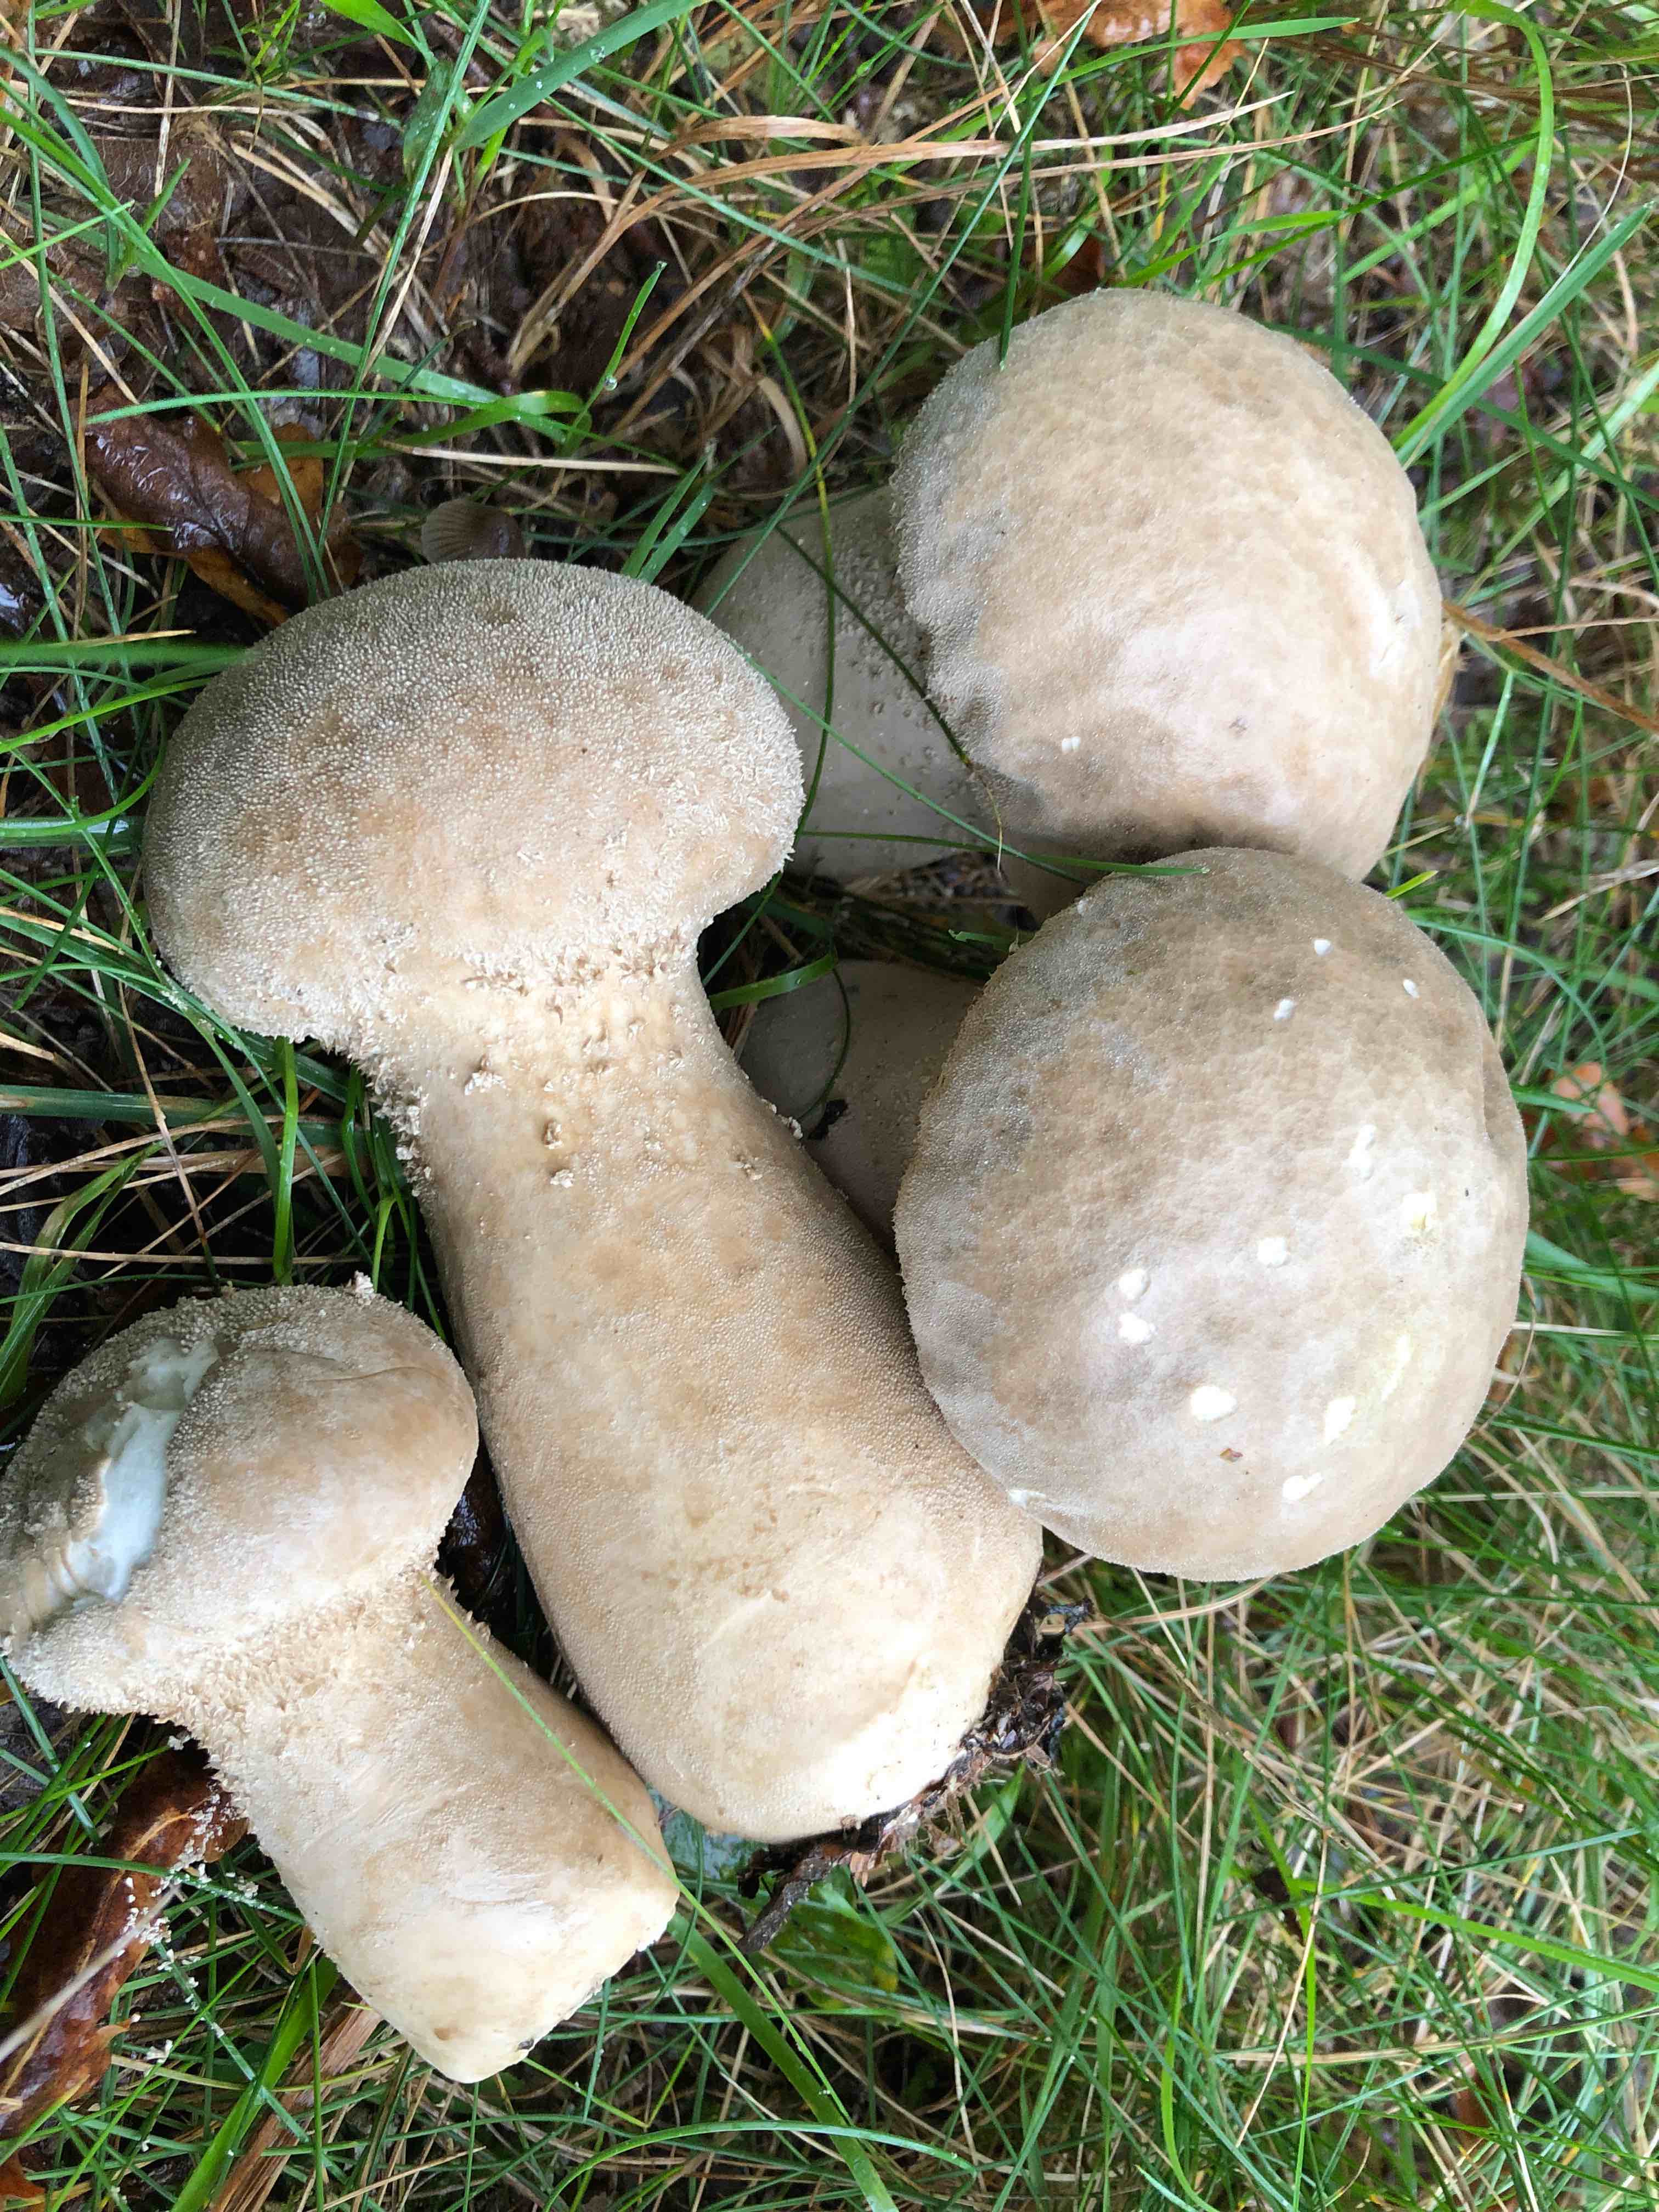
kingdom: Fungi
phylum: Basidiomycota
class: Agaricomycetes
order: Agaricales
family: Lycoperdaceae
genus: Lycoperdon
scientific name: Lycoperdon excipuliforme
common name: højstokket støvbold
